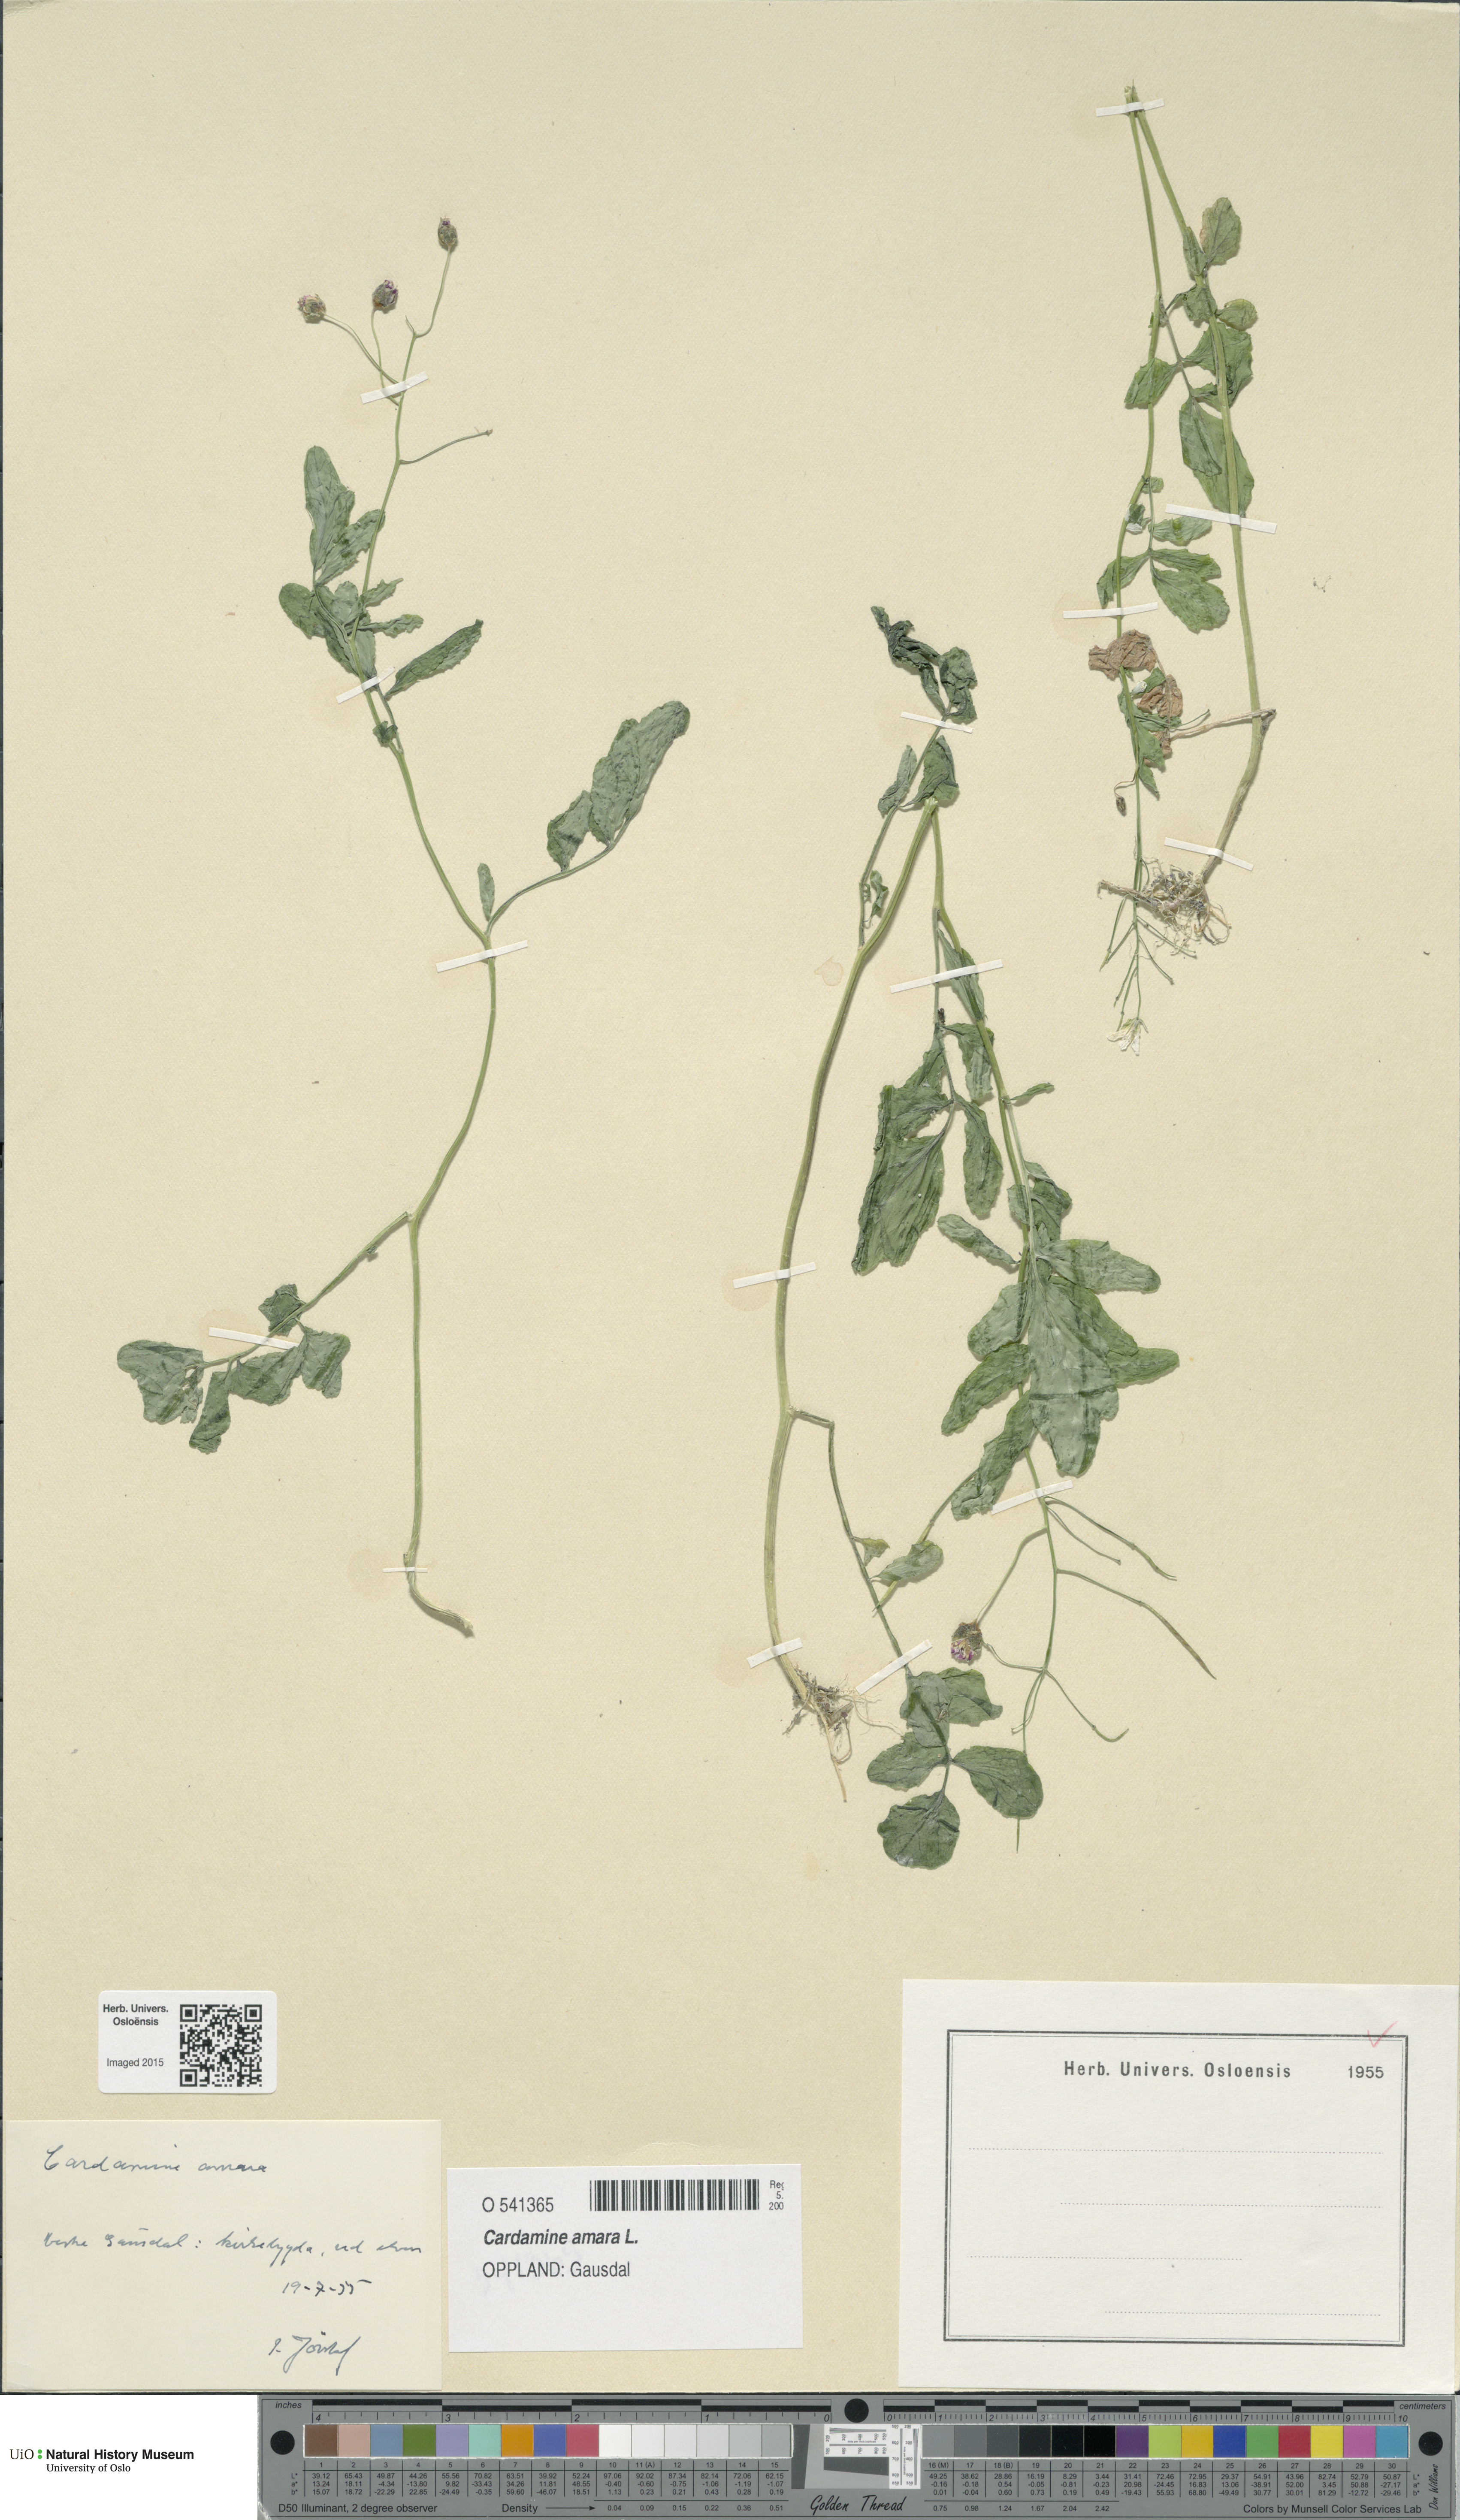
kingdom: Plantae
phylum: Tracheophyta
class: Magnoliopsida
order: Brassicales
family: Brassicaceae
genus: Cardamine
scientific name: Cardamine amara
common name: Large bitter-cress
